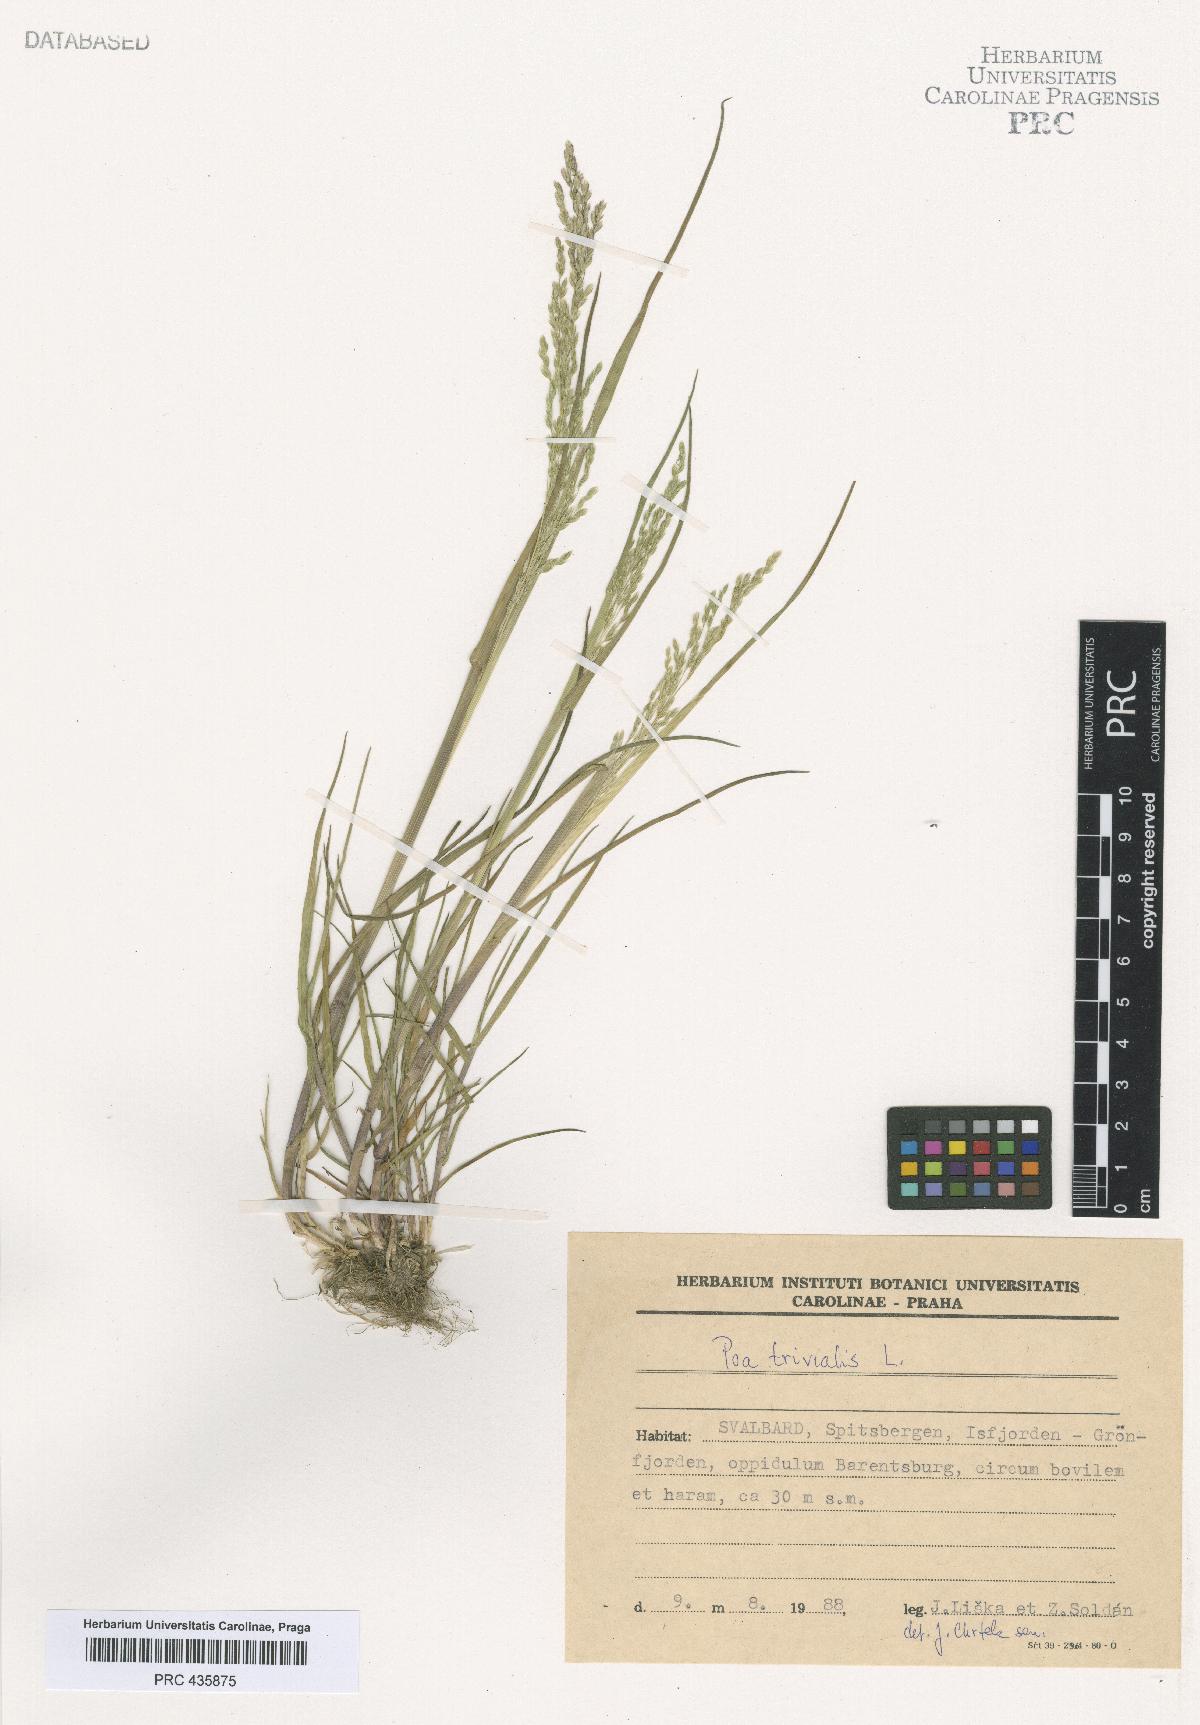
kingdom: Plantae
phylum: Tracheophyta
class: Liliopsida
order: Poales
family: Poaceae
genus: Poa
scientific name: Poa trivialis
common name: Rough bluegrass
